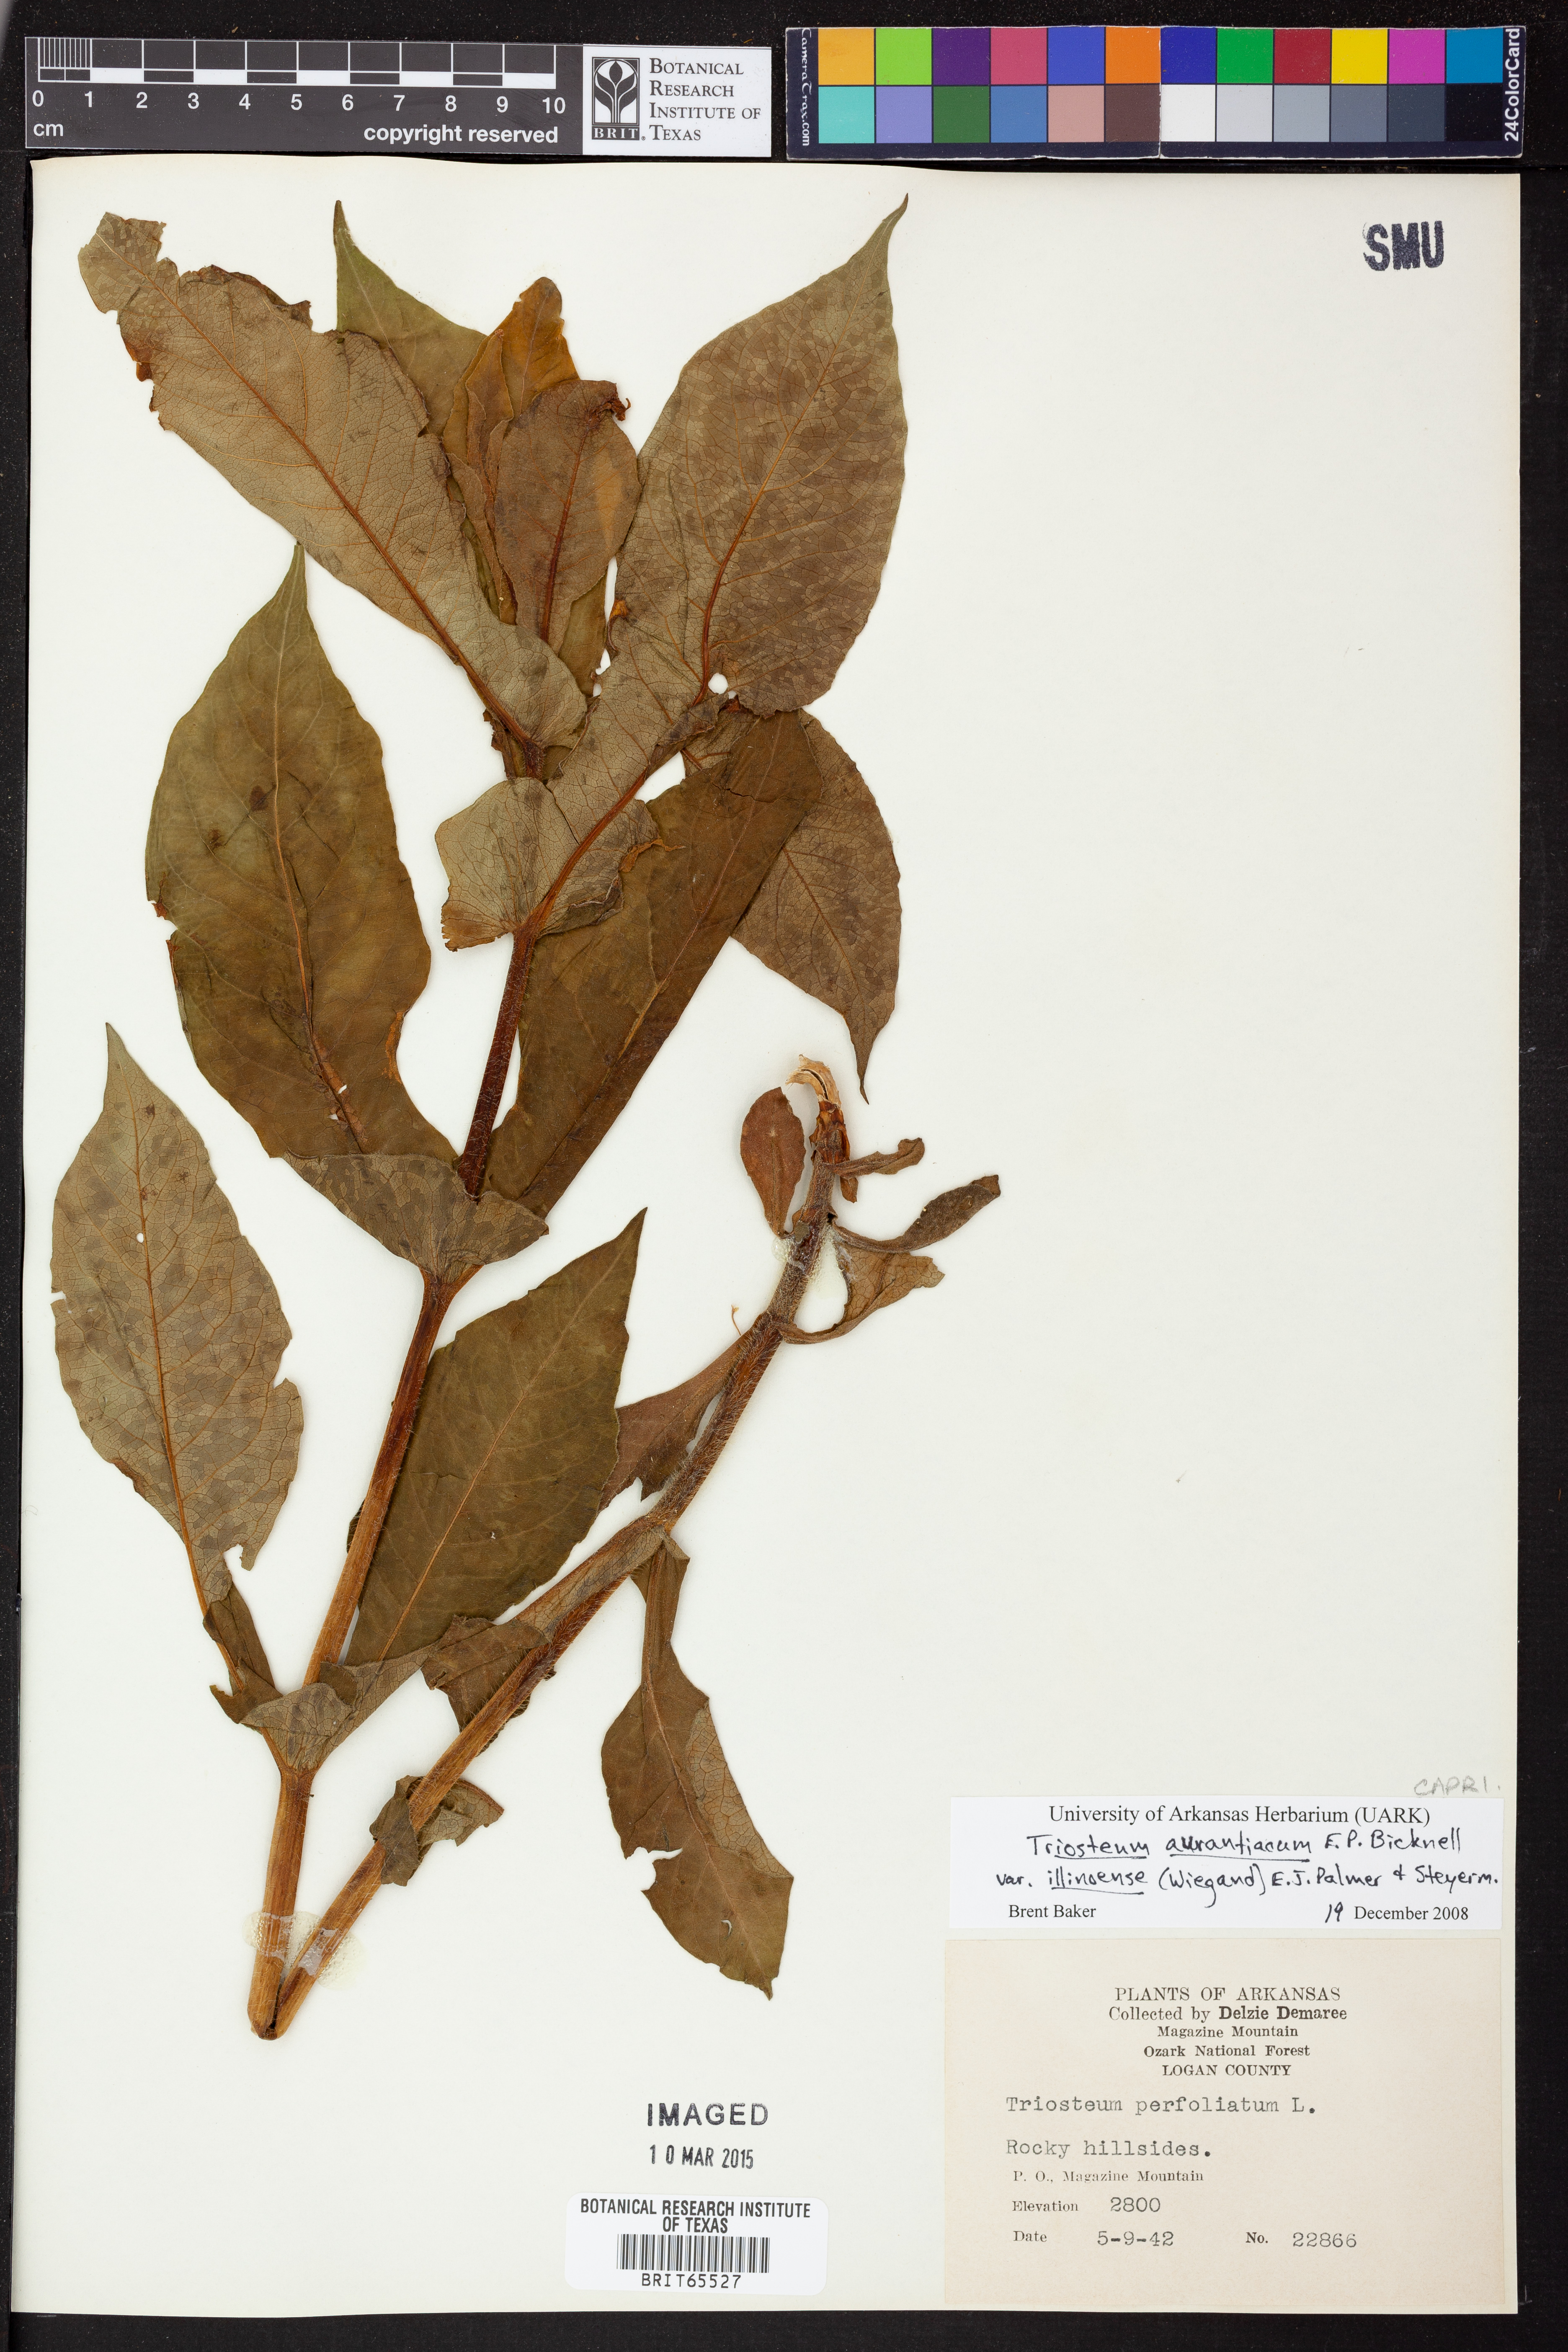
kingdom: Plantae
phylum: Tracheophyta
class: Magnoliopsida
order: Dipsacales
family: Caprifoliaceae
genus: Triosteum
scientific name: Triosteum aurantiacum
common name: Coffee tinker's-weed
